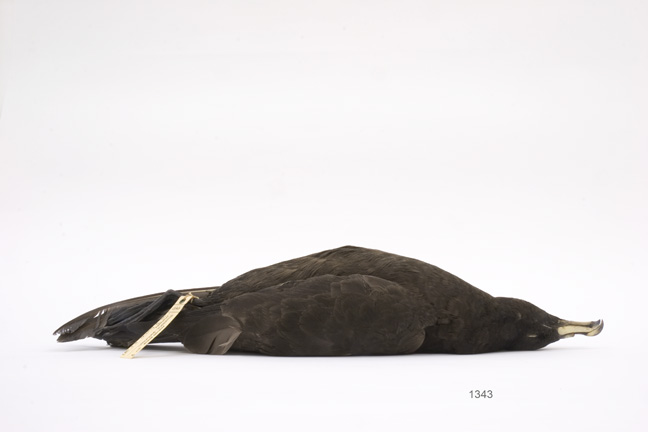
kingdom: Animalia
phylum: Chordata
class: Aves
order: Procellariiformes
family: Procellariidae
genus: Procellaria
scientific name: Procellaria parkinsoni
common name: Black petrel
